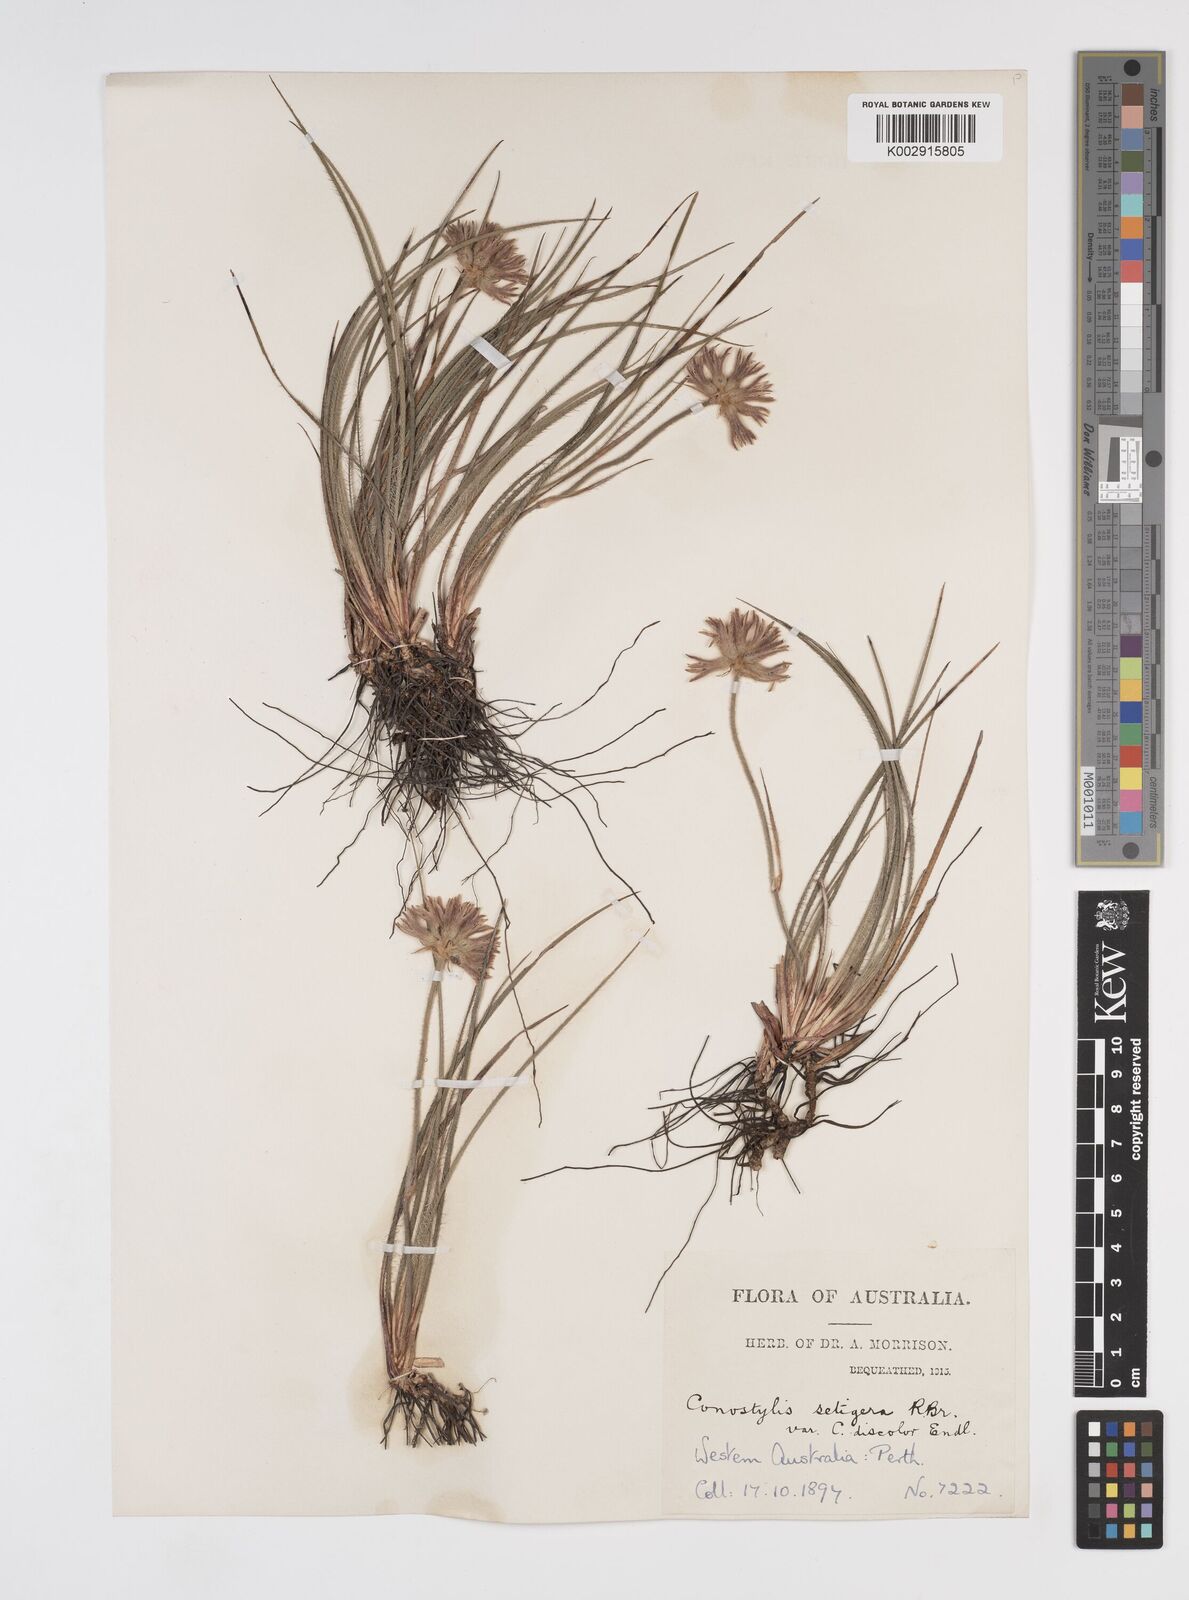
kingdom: Plantae
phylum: Tracheophyta
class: Liliopsida
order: Commelinales
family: Haemodoraceae
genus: Conostylis
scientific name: Conostylis setigera
